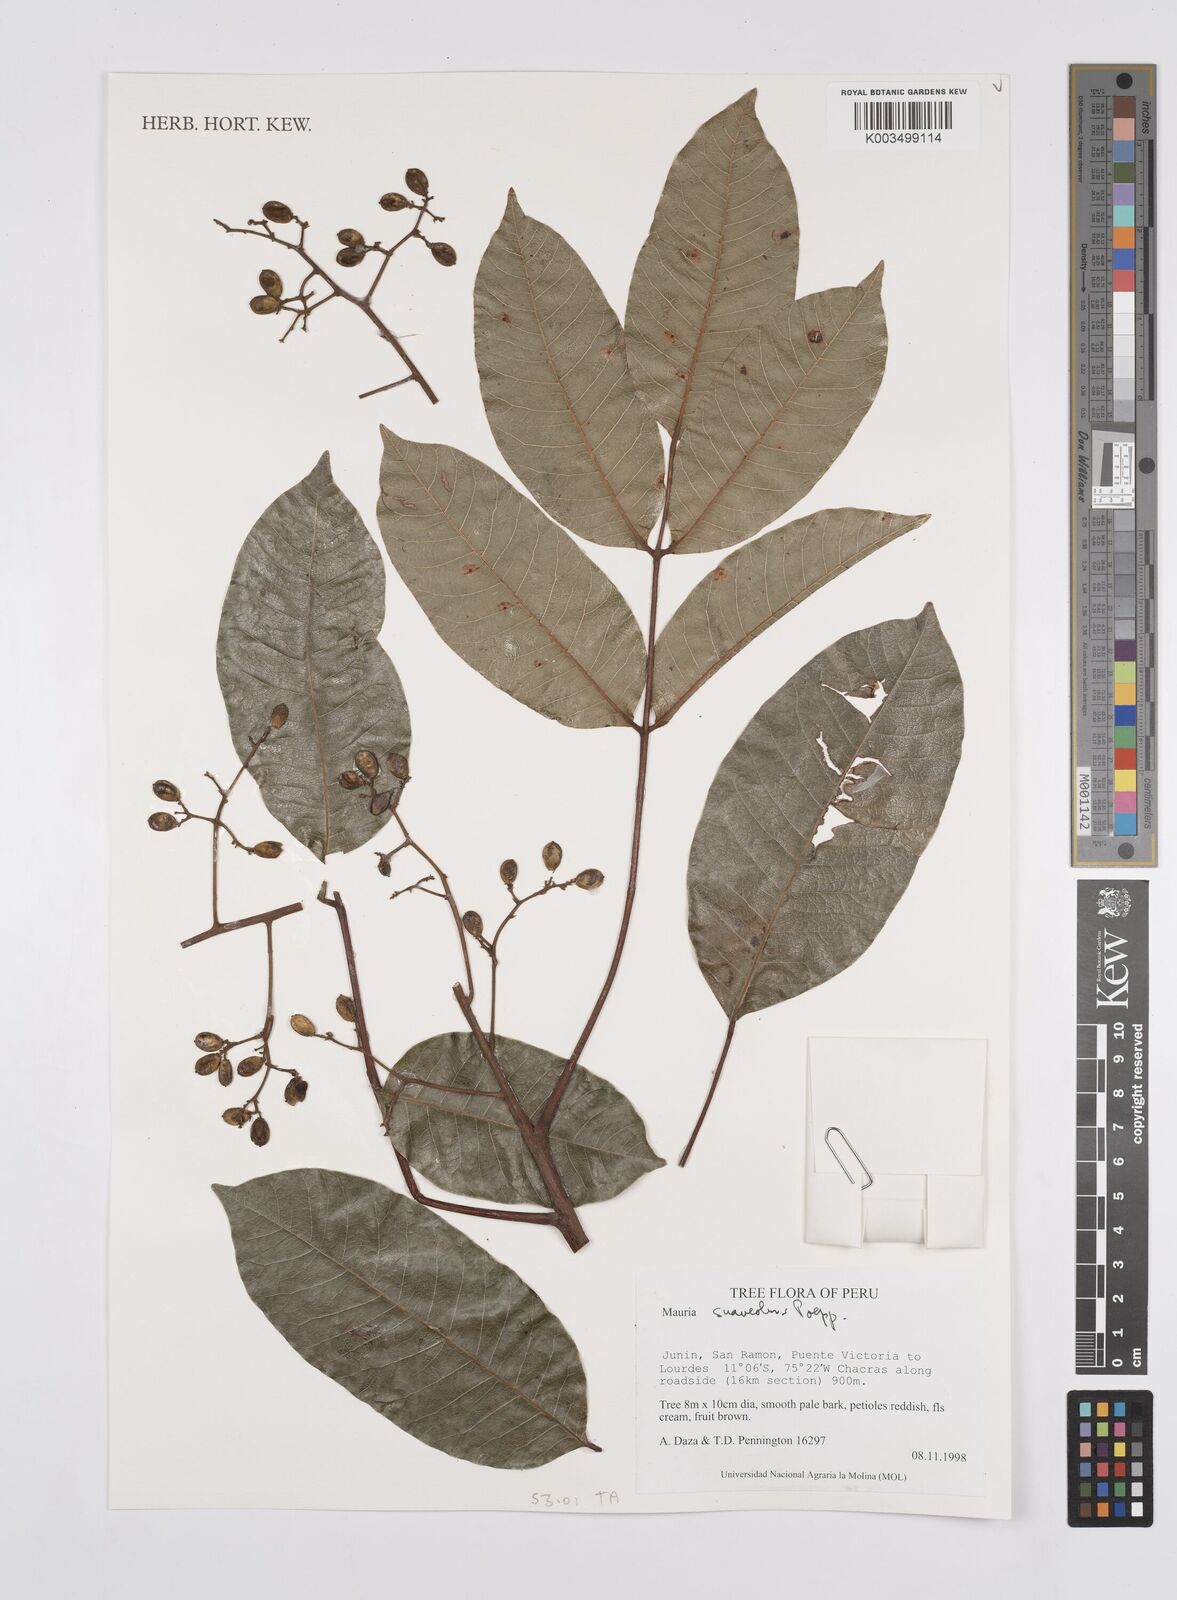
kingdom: Plantae
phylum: Tracheophyta
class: Magnoliopsida
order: Sapindales
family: Anacardiaceae
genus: Mauria
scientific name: Mauria heterophylla
